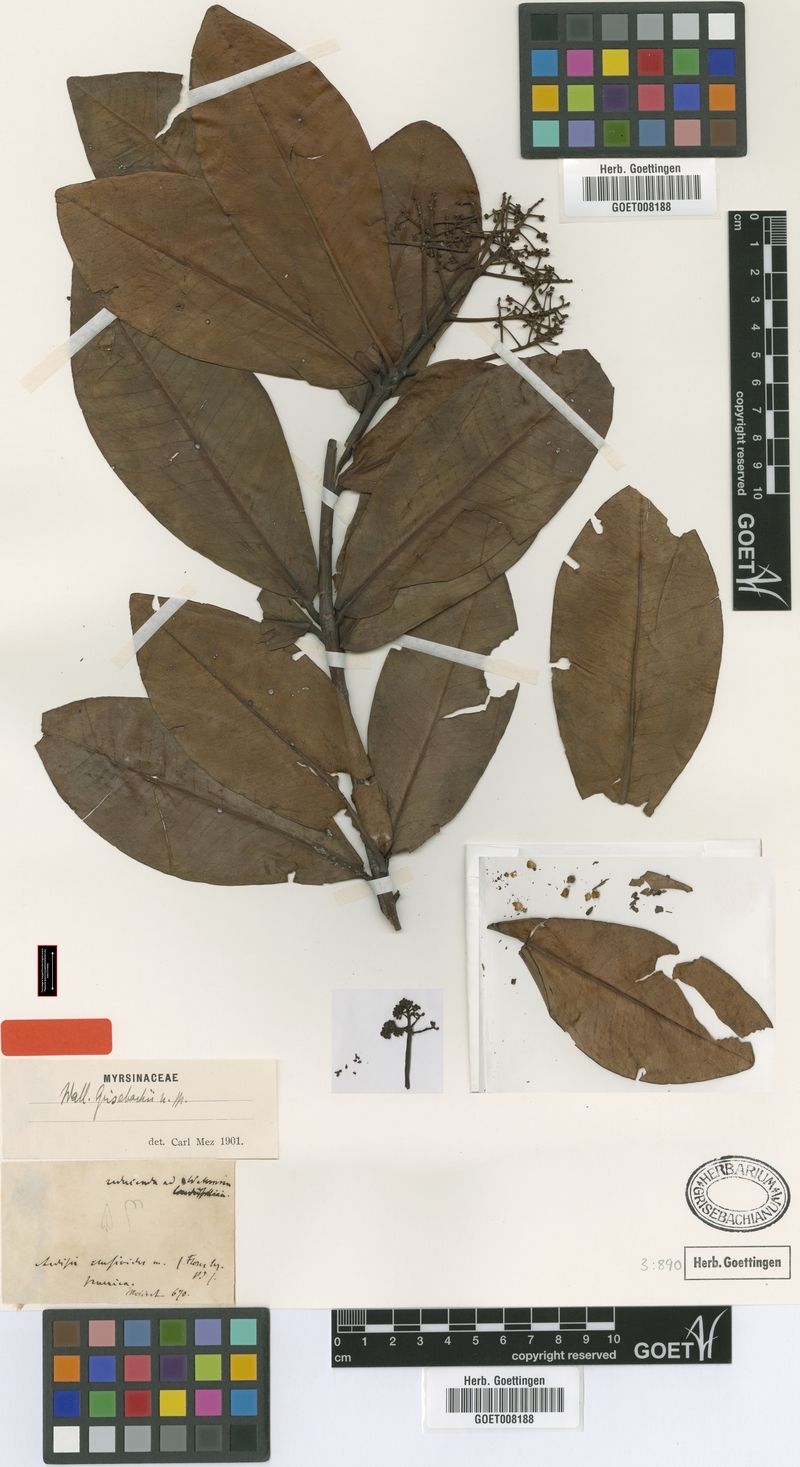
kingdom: Plantae
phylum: Tracheophyta
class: Magnoliopsida
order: Ericales
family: Primulaceae
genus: Wallenia
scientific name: Wallenia elliptica
